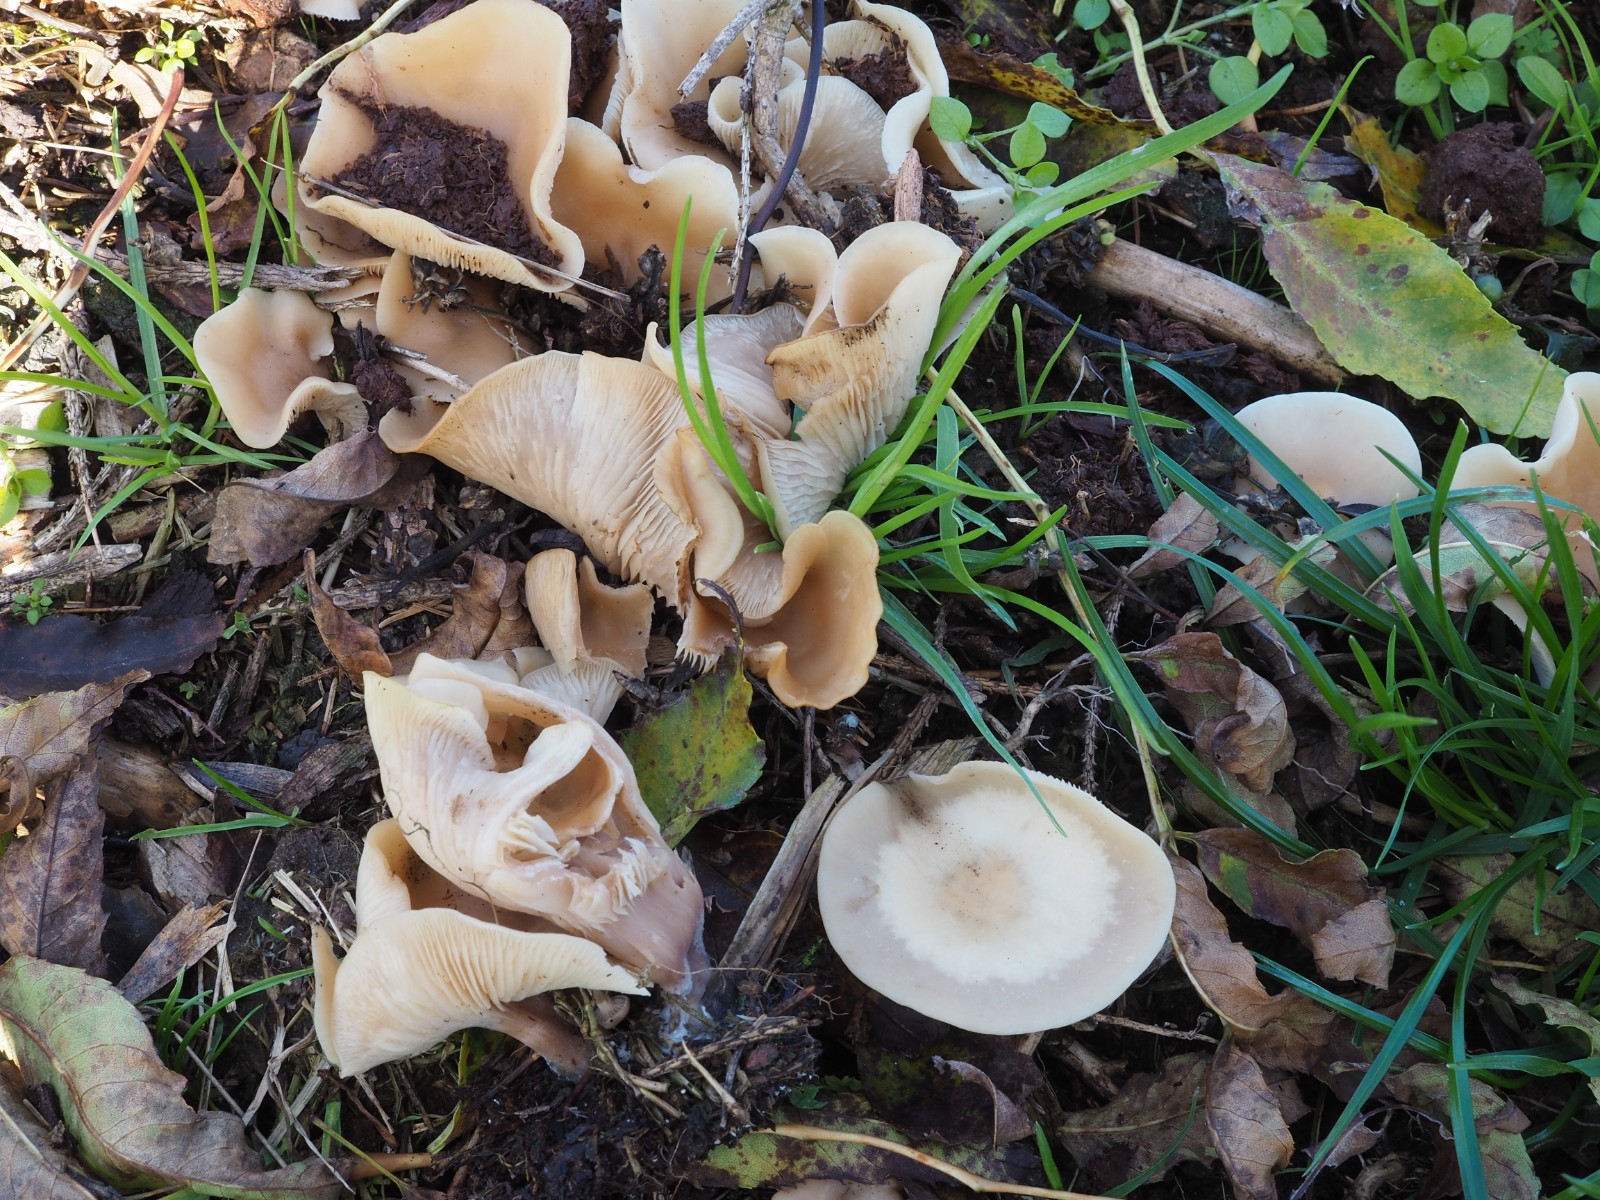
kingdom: Fungi
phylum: Basidiomycota
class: Agaricomycetes
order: Agaricales
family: Tricholomataceae
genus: Clitocybe
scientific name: Clitocybe amarescens
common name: gødnings-tragthat
